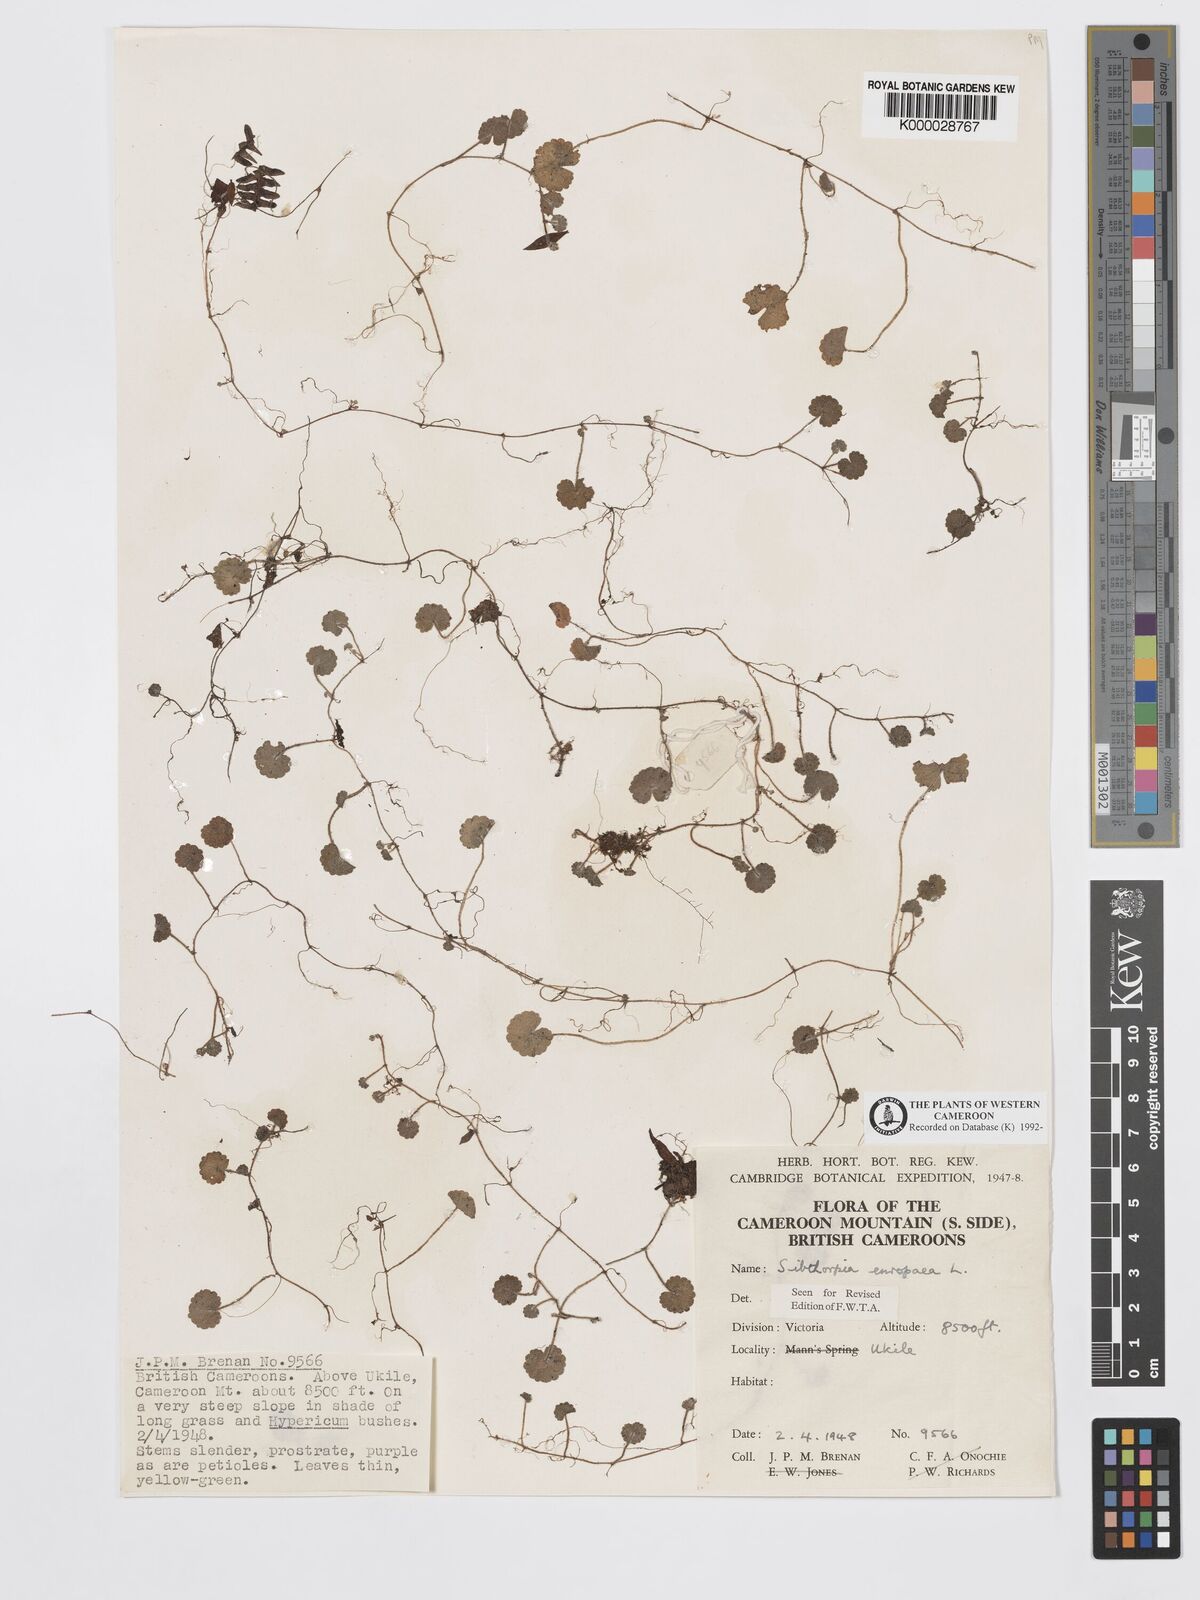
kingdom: Plantae
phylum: Tracheophyta
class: Magnoliopsida
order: Lamiales
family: Plantaginaceae
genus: Sibthorpia
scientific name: Sibthorpia europaea
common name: Cornish moneywort
